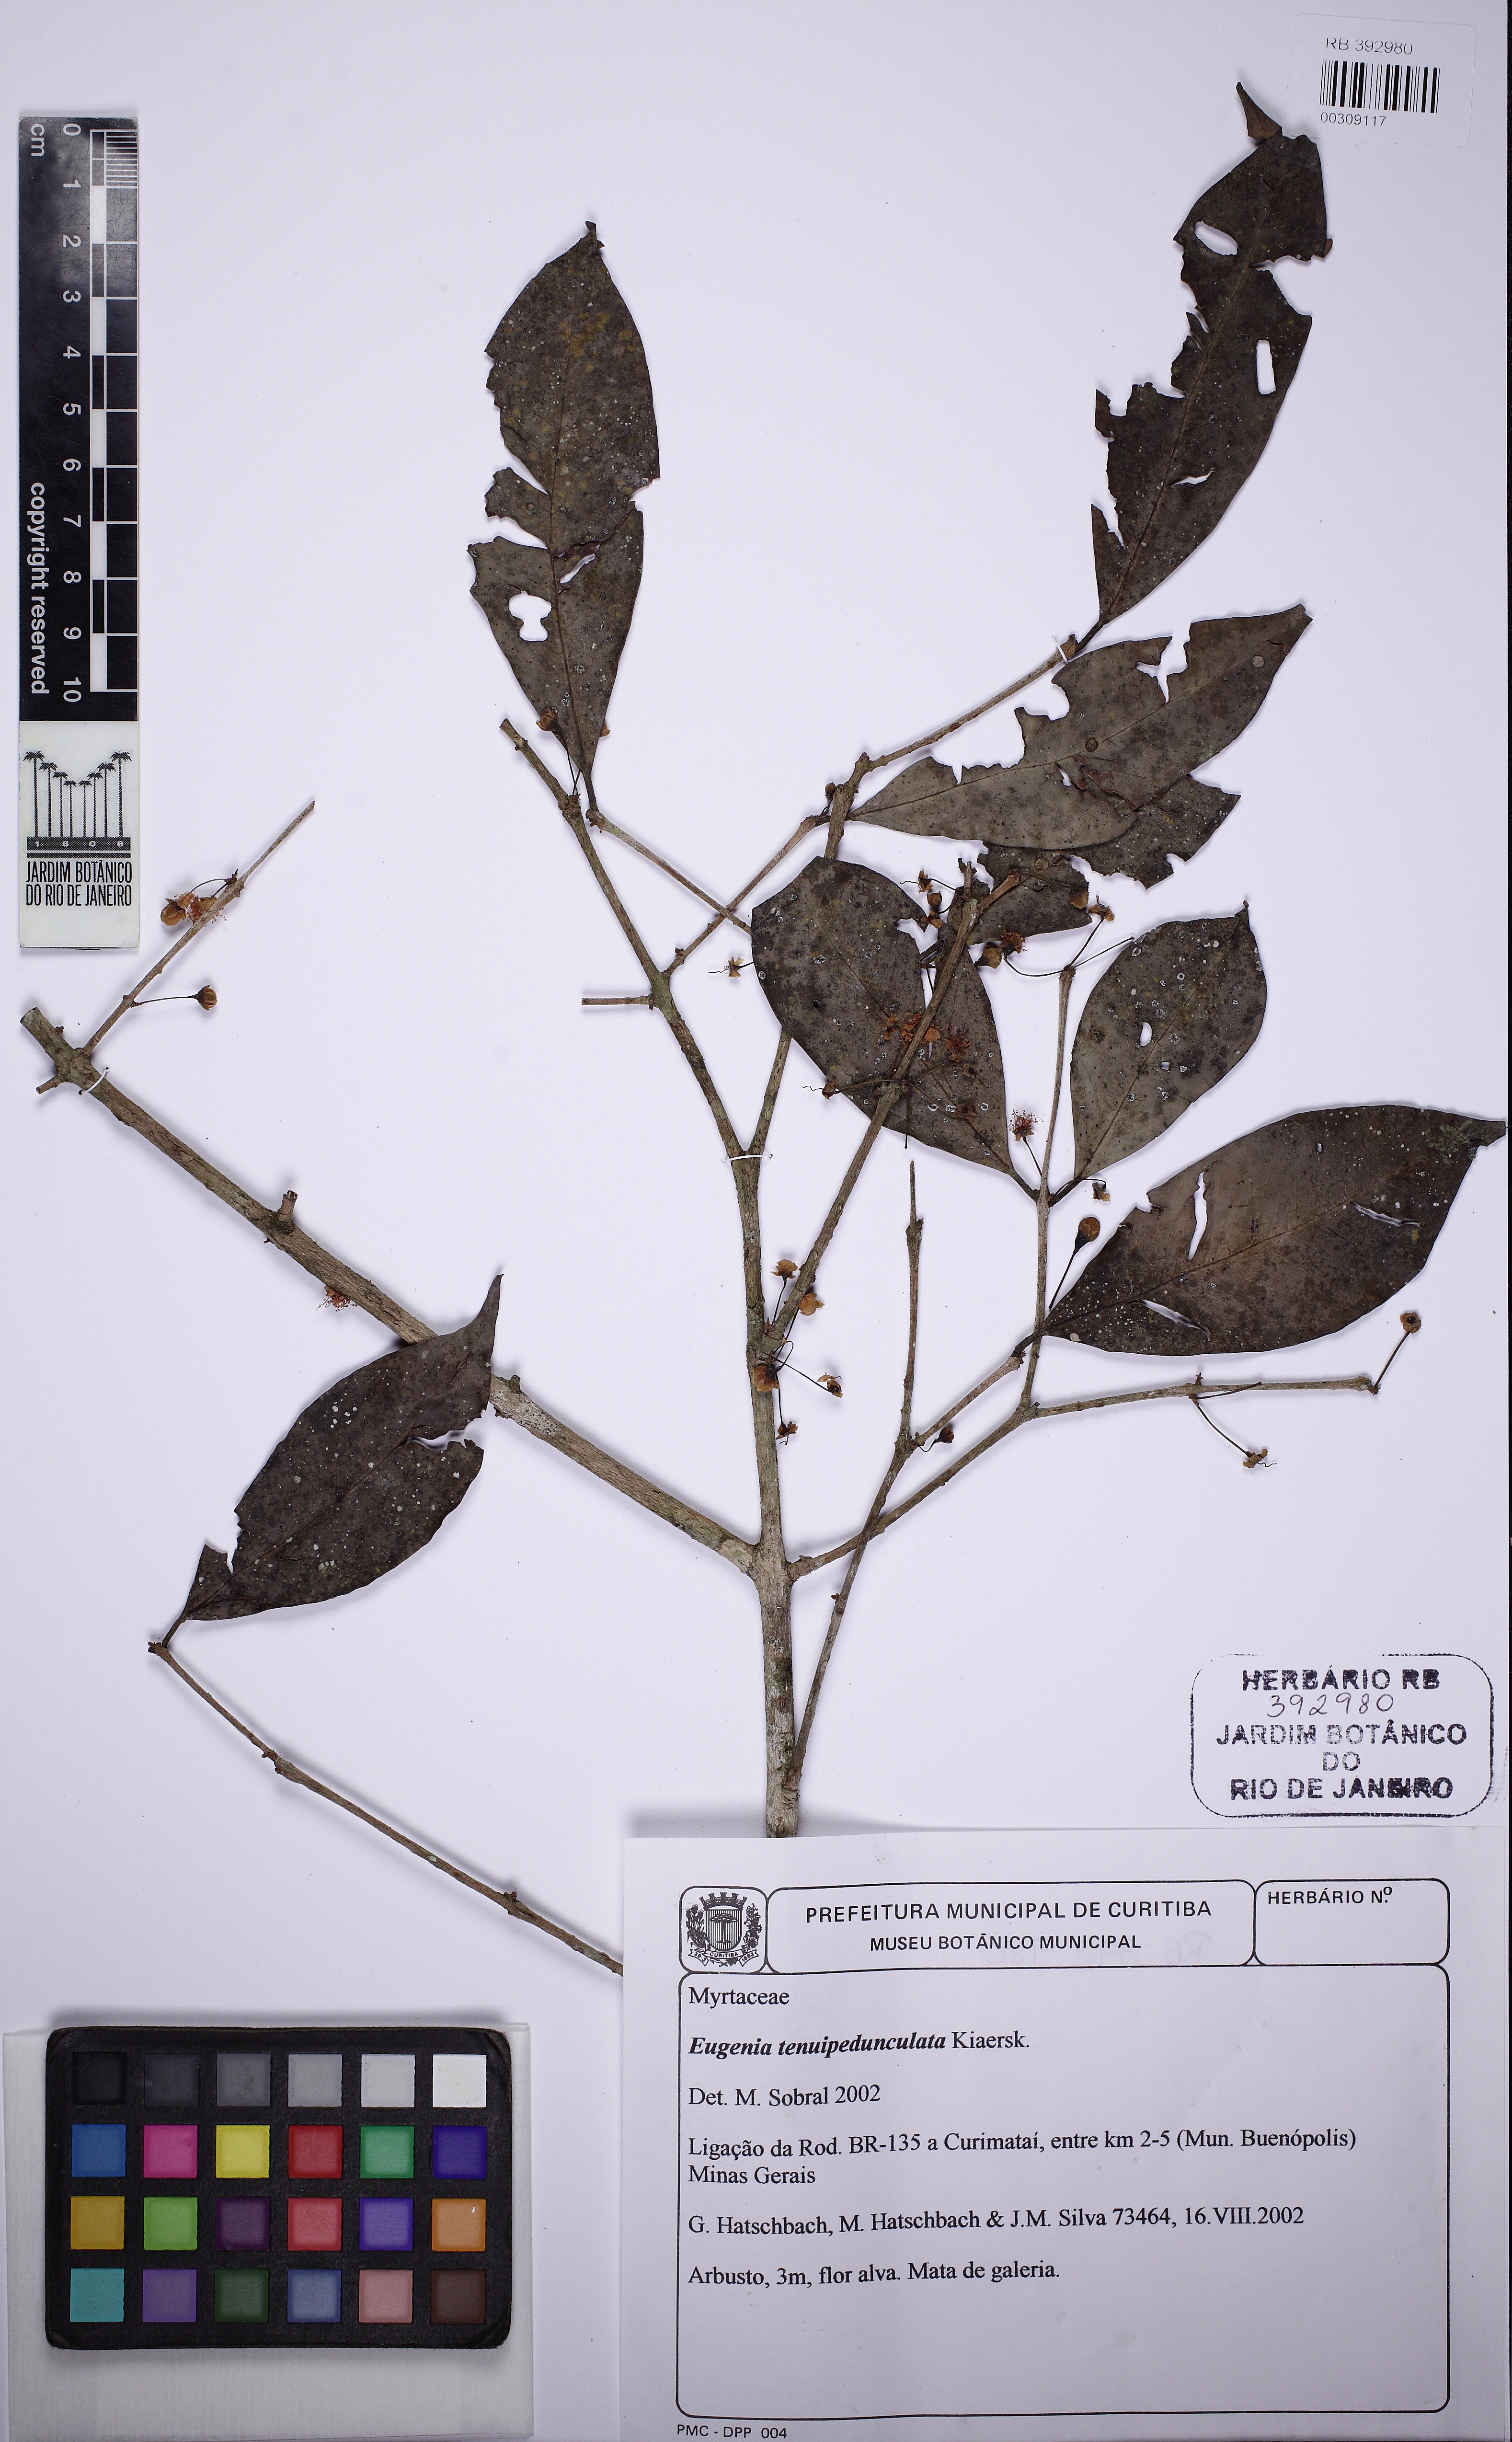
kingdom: Plantae
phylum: Tracheophyta
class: Magnoliopsida
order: Myrtales
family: Myrtaceae
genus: Eugenia
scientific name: Eugenia tenuipedunculata
